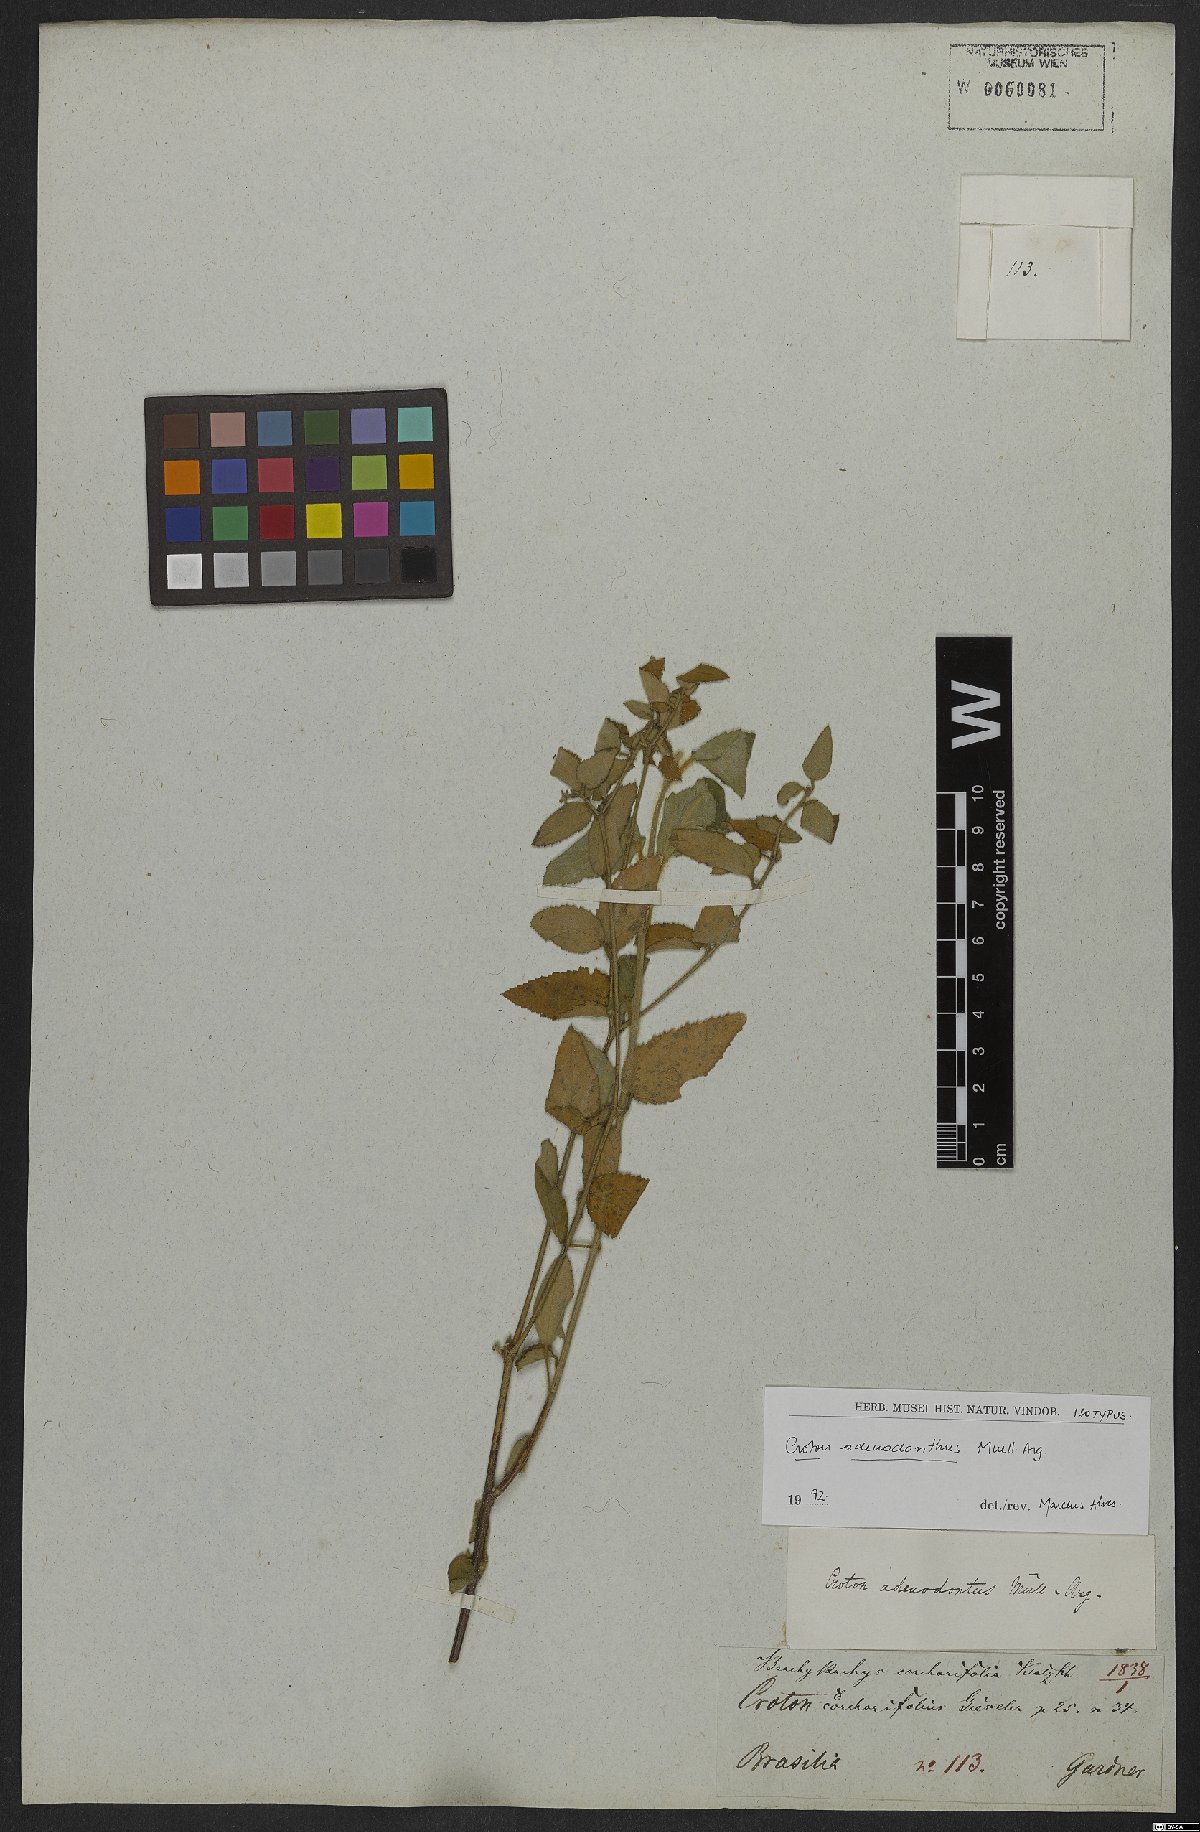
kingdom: Plantae
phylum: Tracheophyta
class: Magnoliopsida
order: Malpighiales
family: Euphorbiaceae
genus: Croton
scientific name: Croton adenodontus
